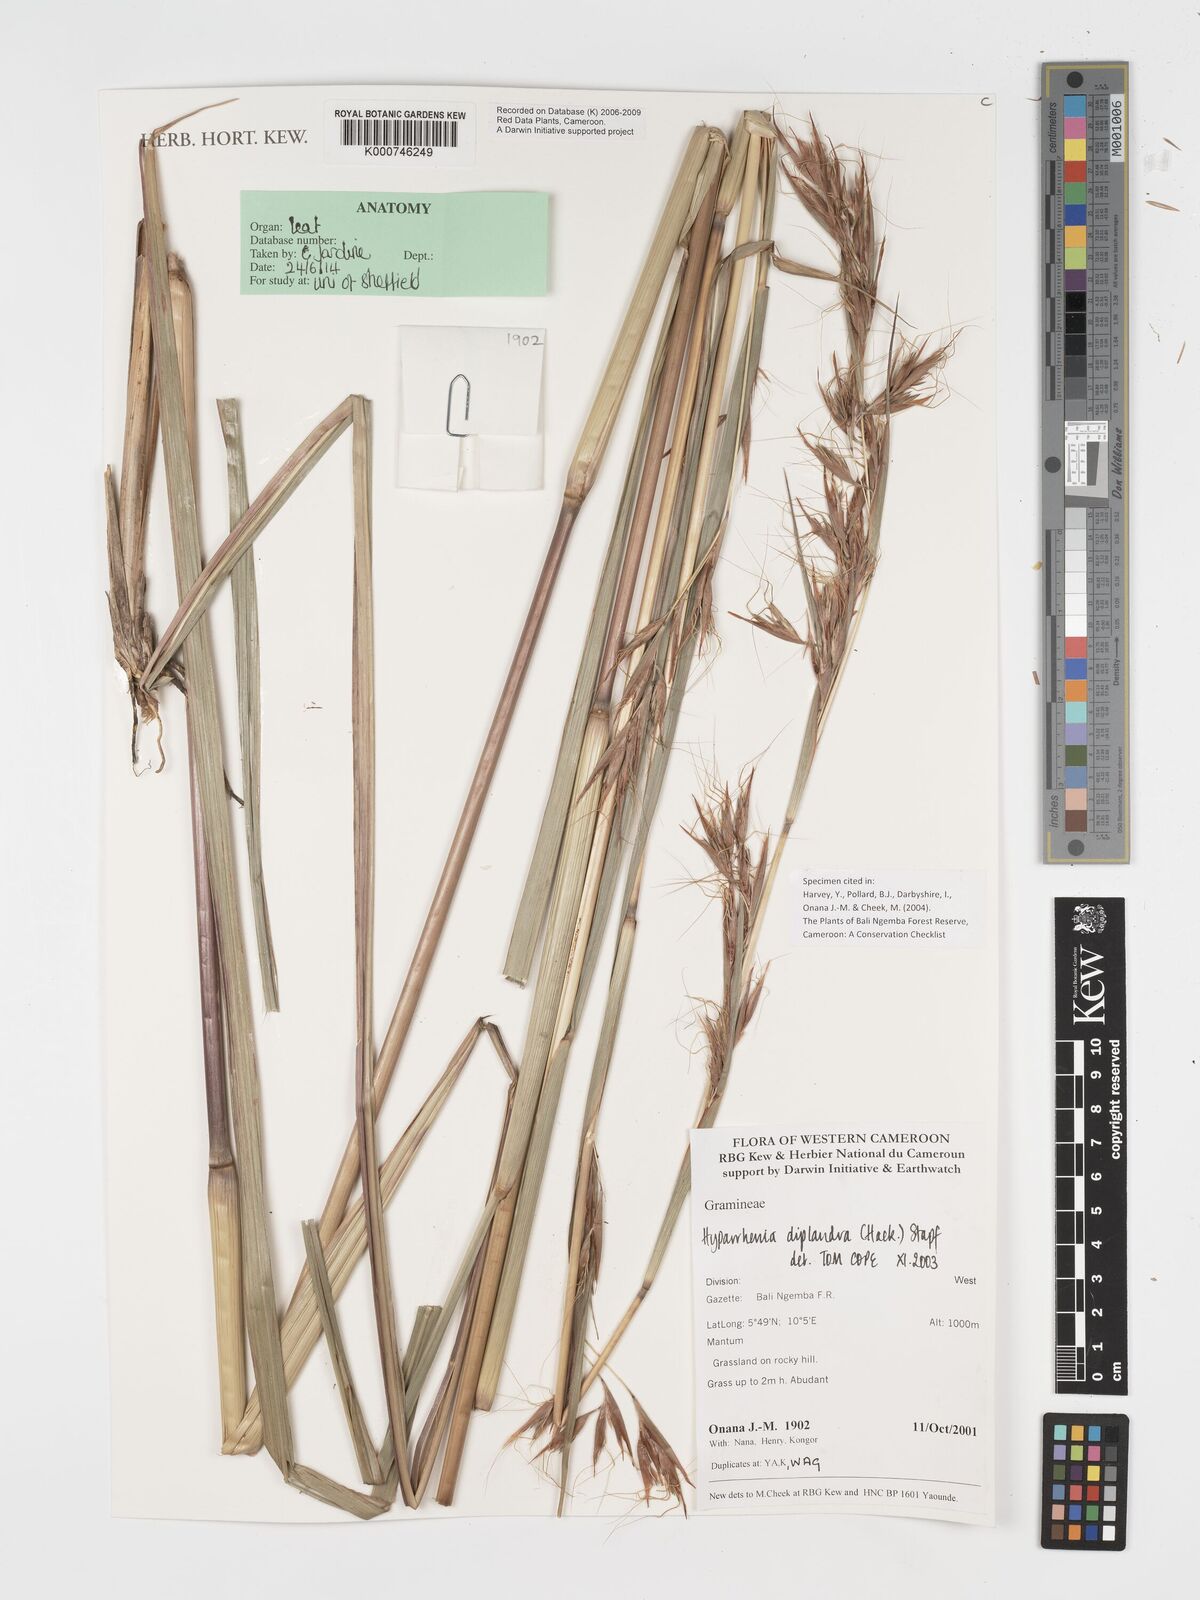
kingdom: Plantae
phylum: Tracheophyta
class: Liliopsida
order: Poales
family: Poaceae
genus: Hyparrhenia
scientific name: Hyparrhenia diplandra
